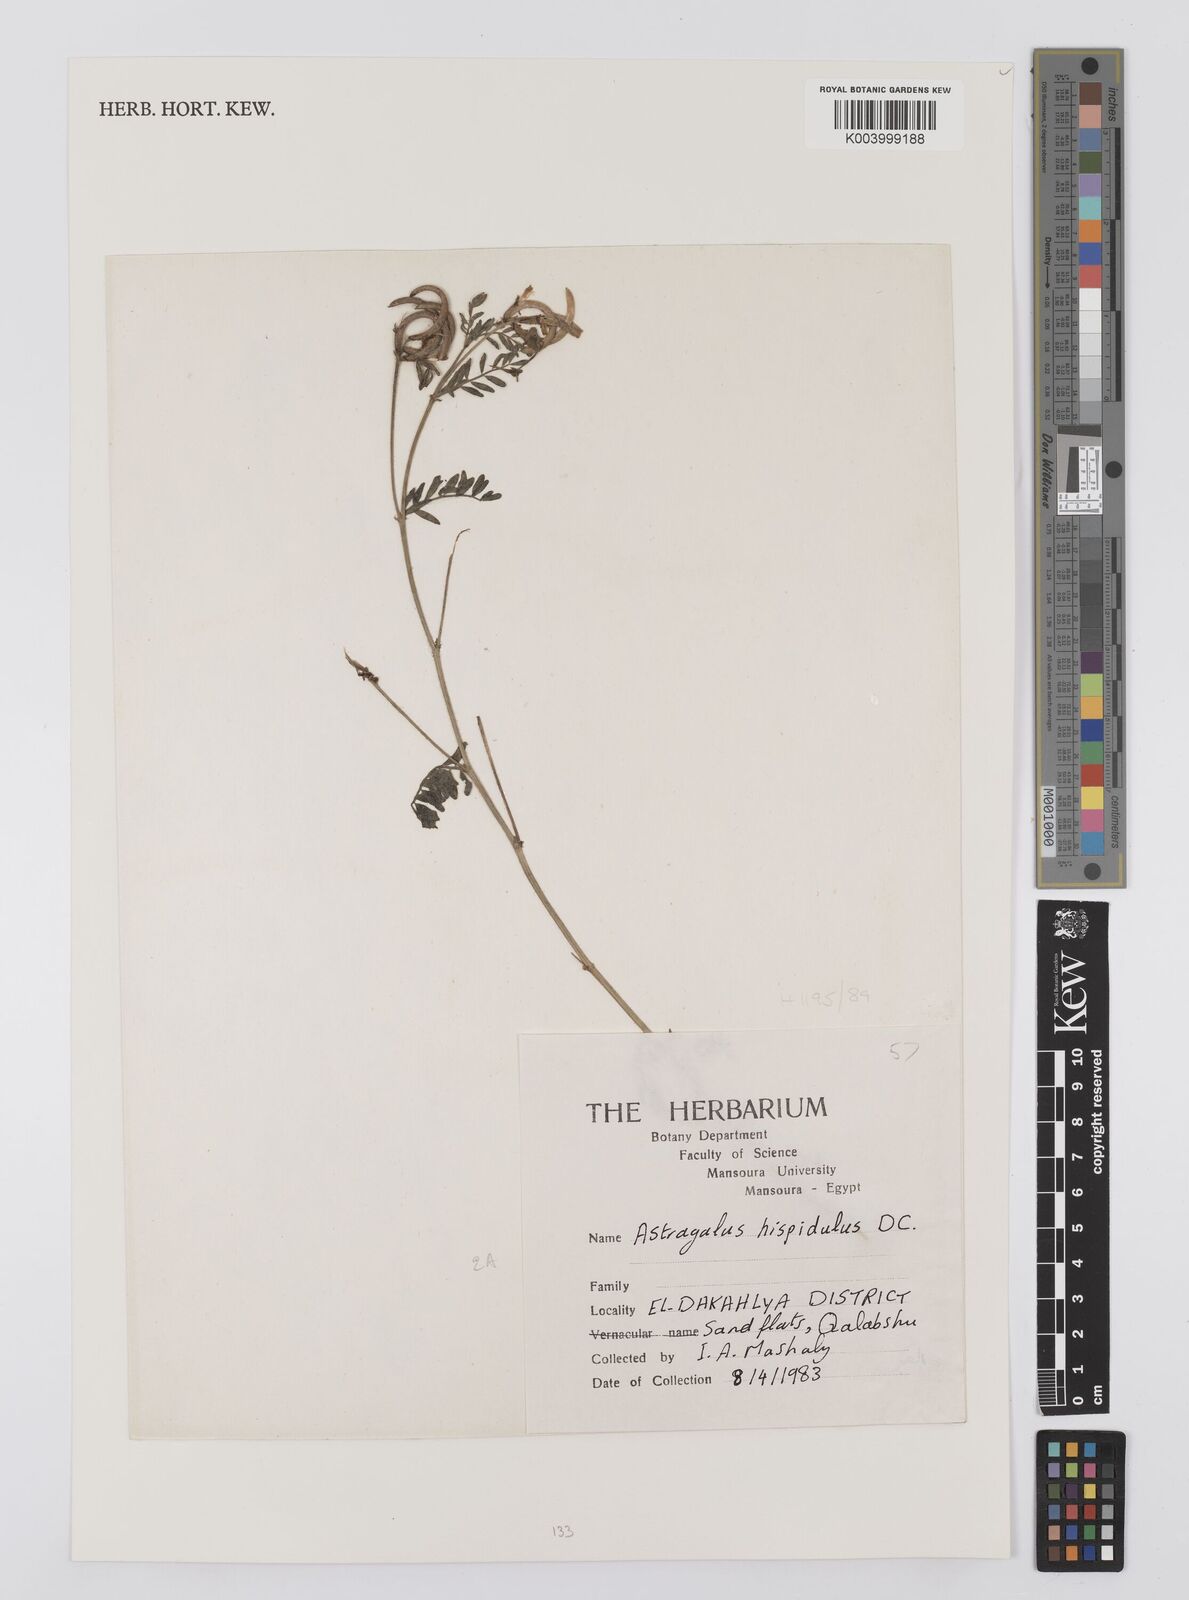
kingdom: Plantae
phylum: Tracheophyta
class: Magnoliopsida
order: Fabales
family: Fabaceae
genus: Astragalus
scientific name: Astragalus hispidulus
